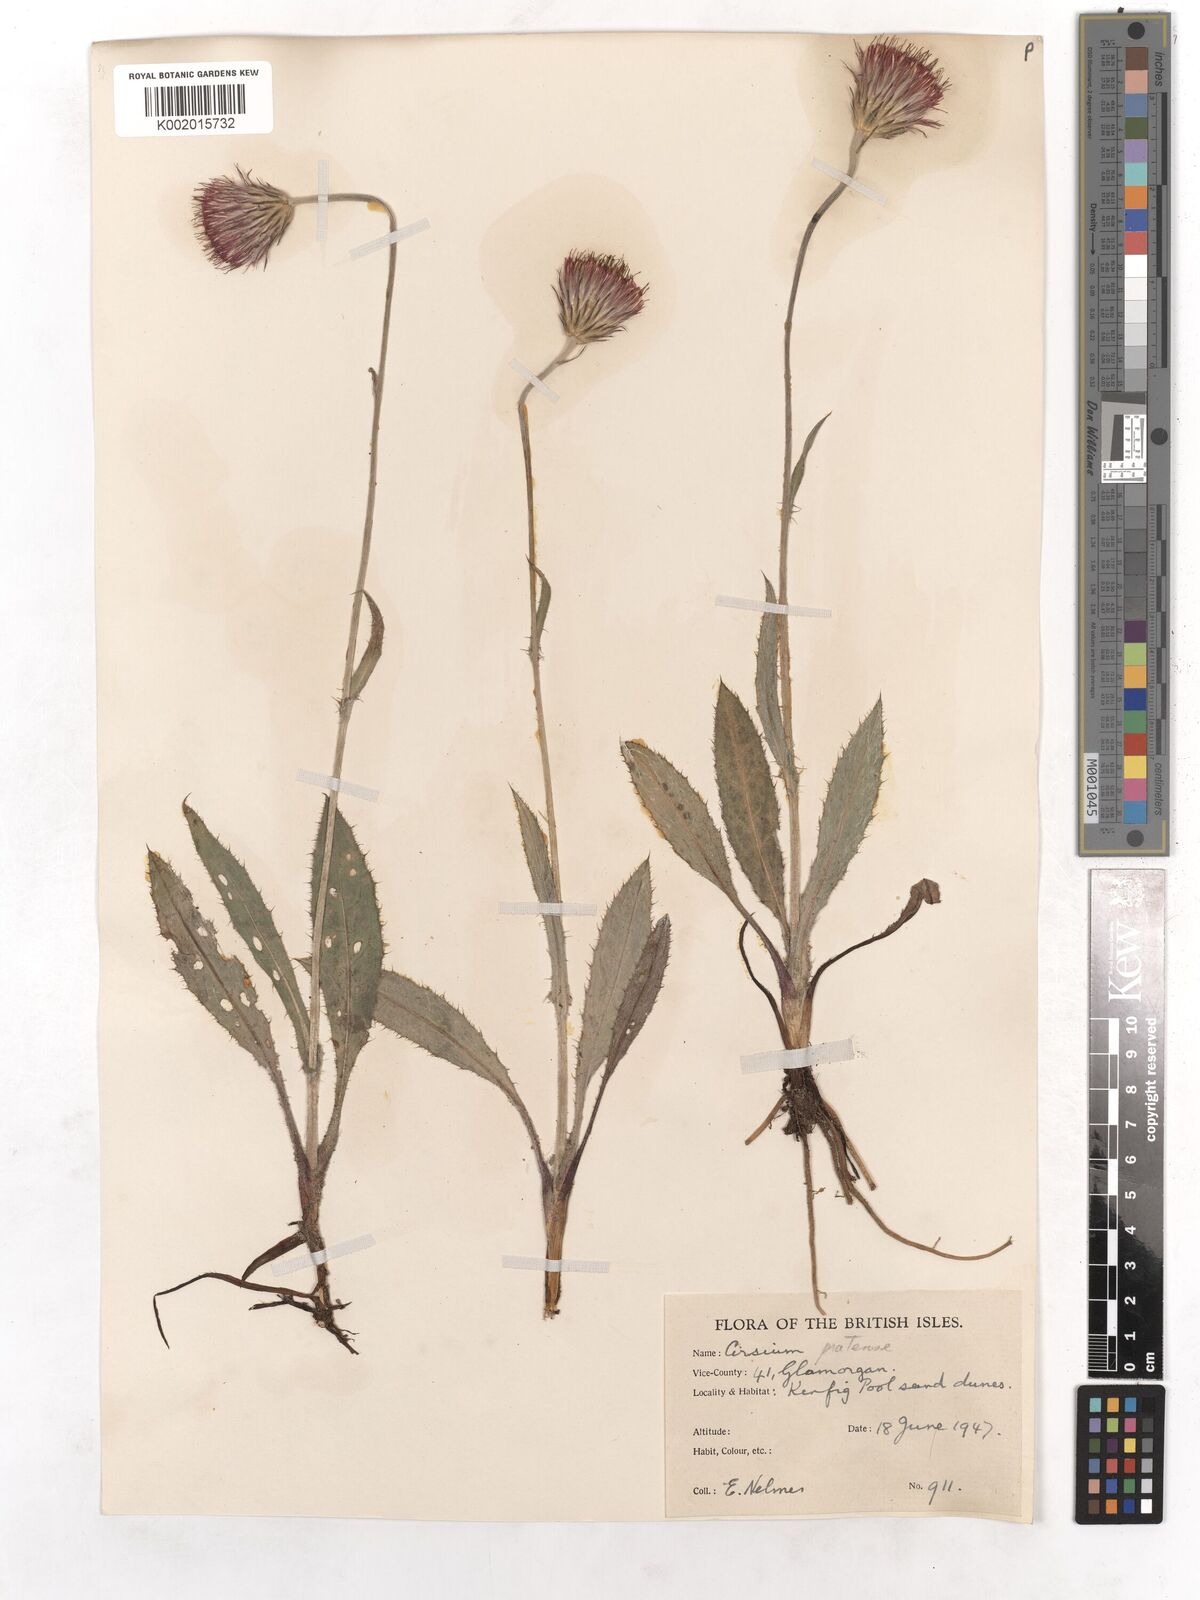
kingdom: Plantae
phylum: Tracheophyta
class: Magnoliopsida
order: Asterales
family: Asteraceae
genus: Cirsium
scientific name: Cirsium dissectum
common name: Meadow thistle
